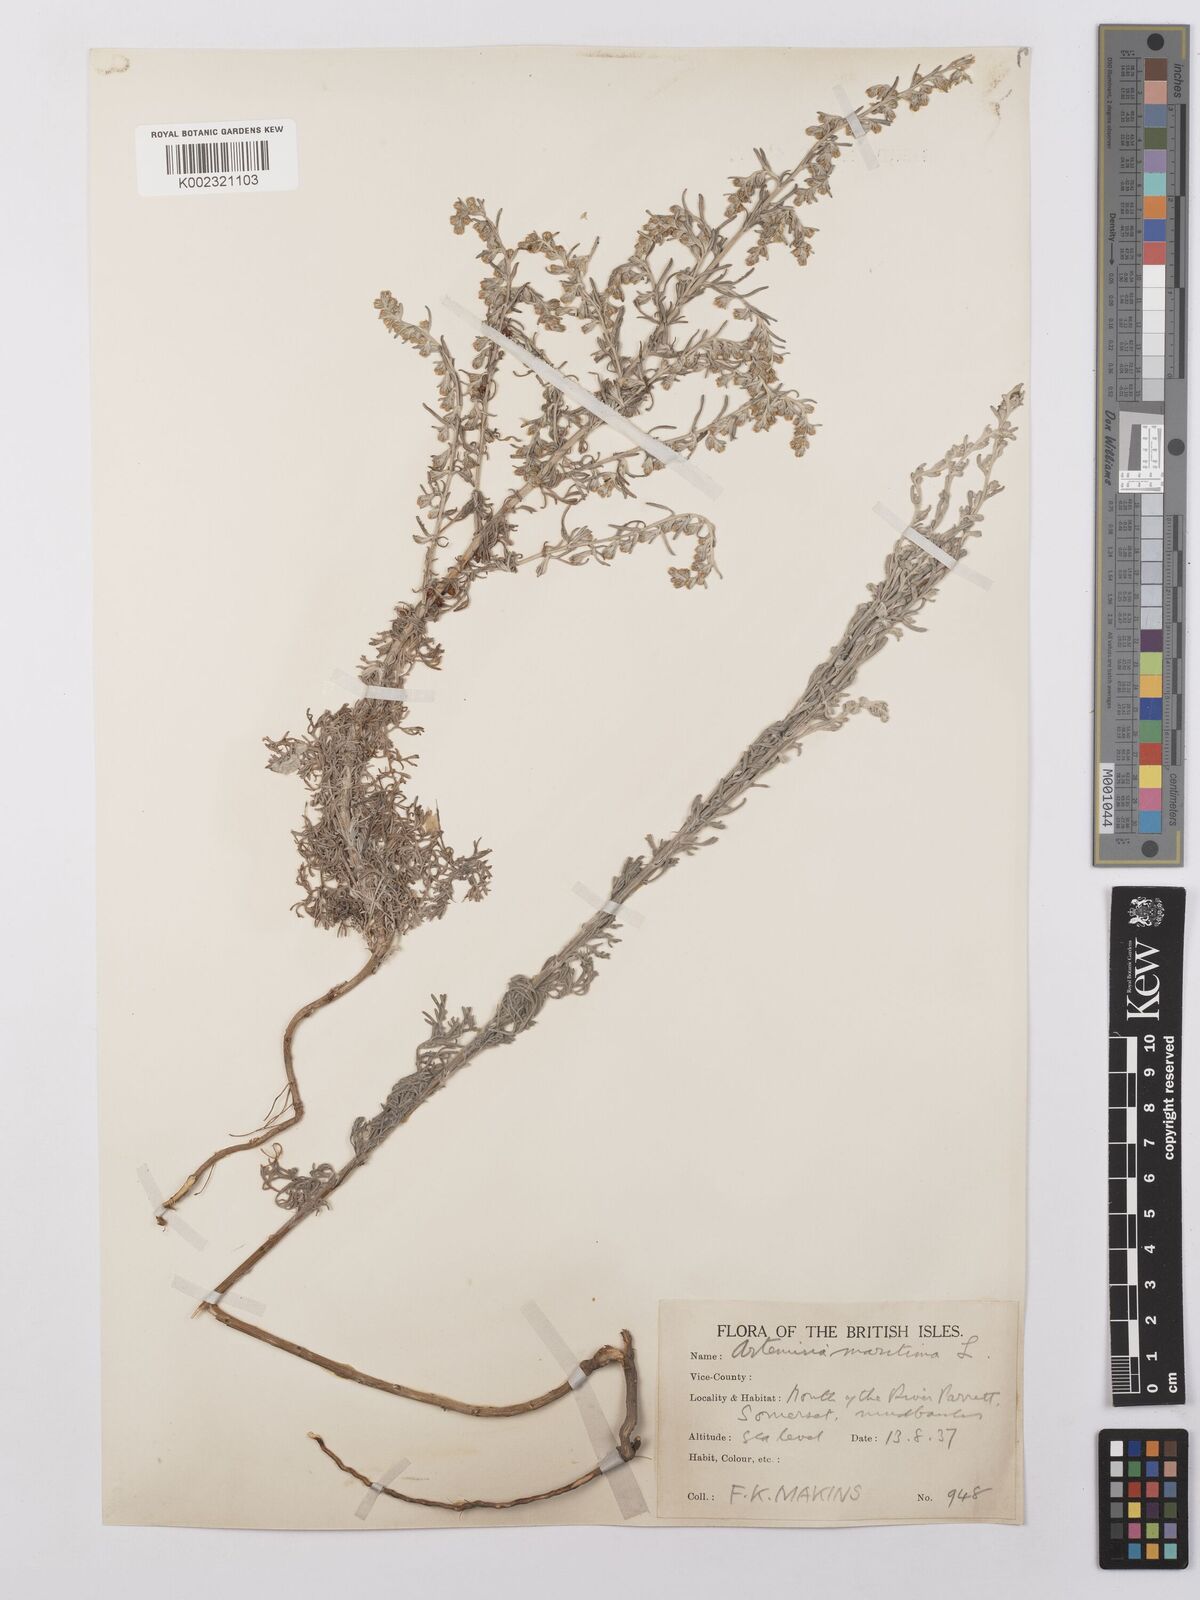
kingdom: Plantae
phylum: Tracheophyta
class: Magnoliopsida
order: Asterales
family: Asteraceae
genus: Artemisia
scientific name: Artemisia maritima
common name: Wormseed
